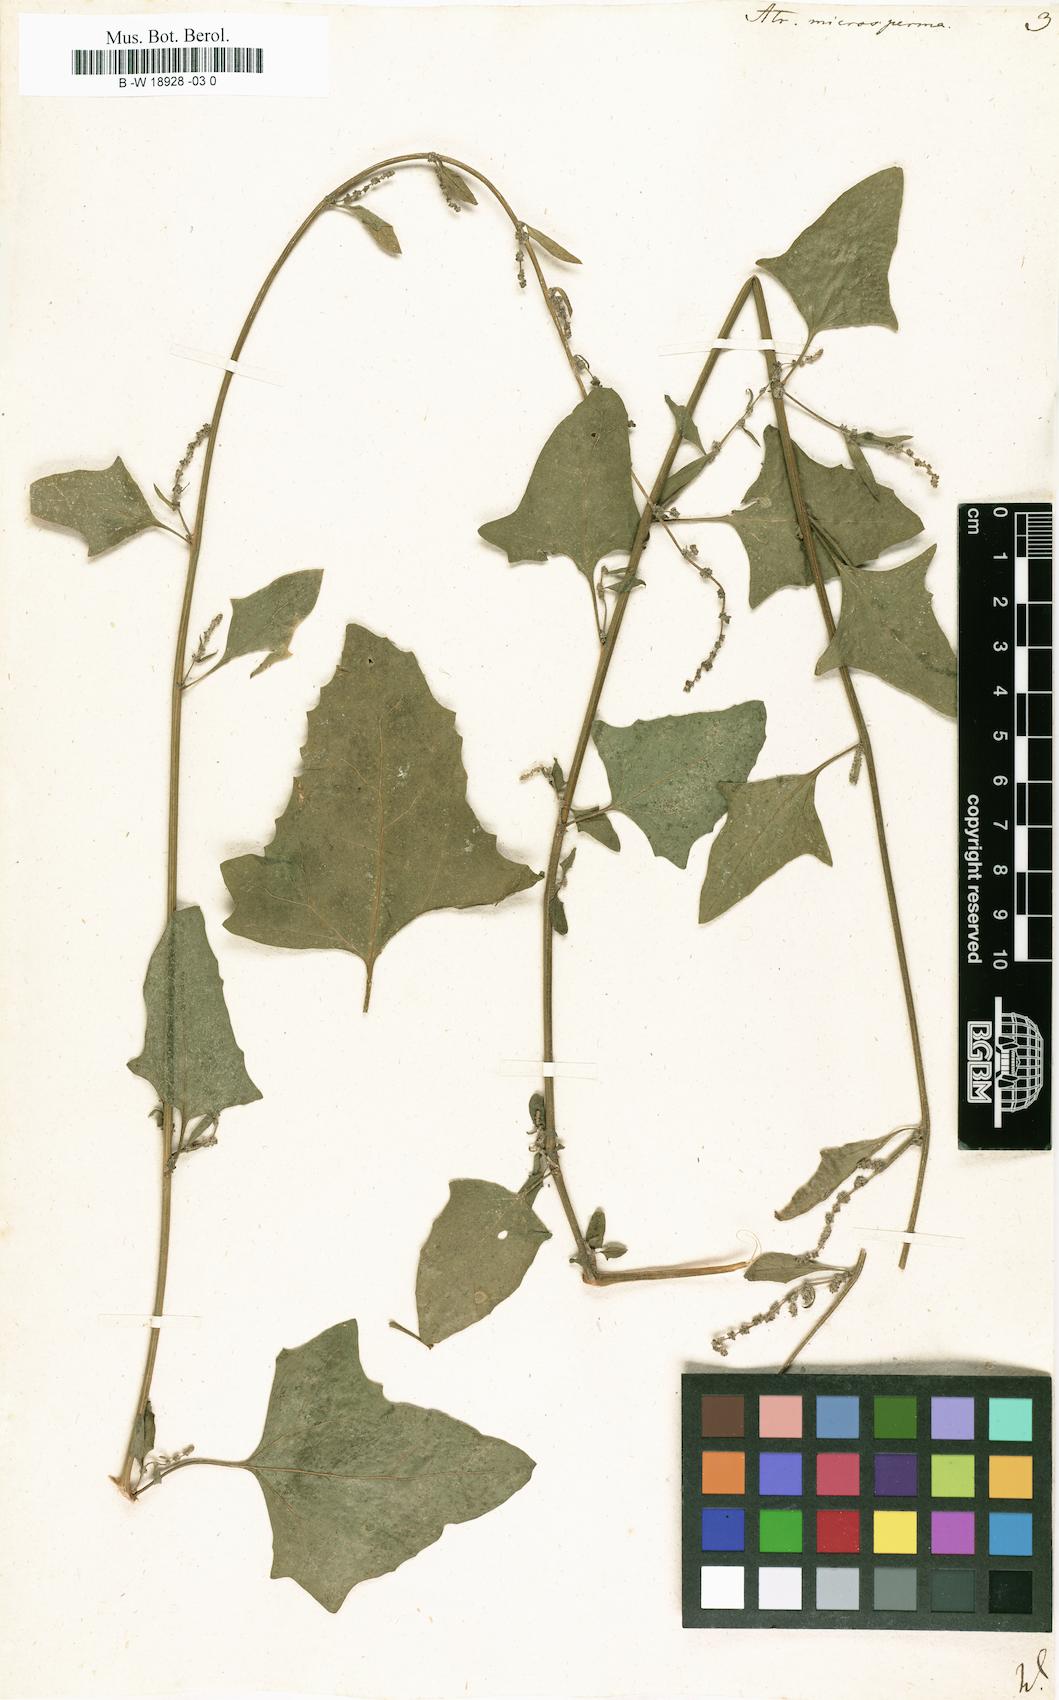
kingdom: Plantae
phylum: Tracheophyta
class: Magnoliopsida
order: Caryophyllales
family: Amaranthaceae
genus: Atriplex
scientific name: Atriplex prostrata
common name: Spear-leaved orache
